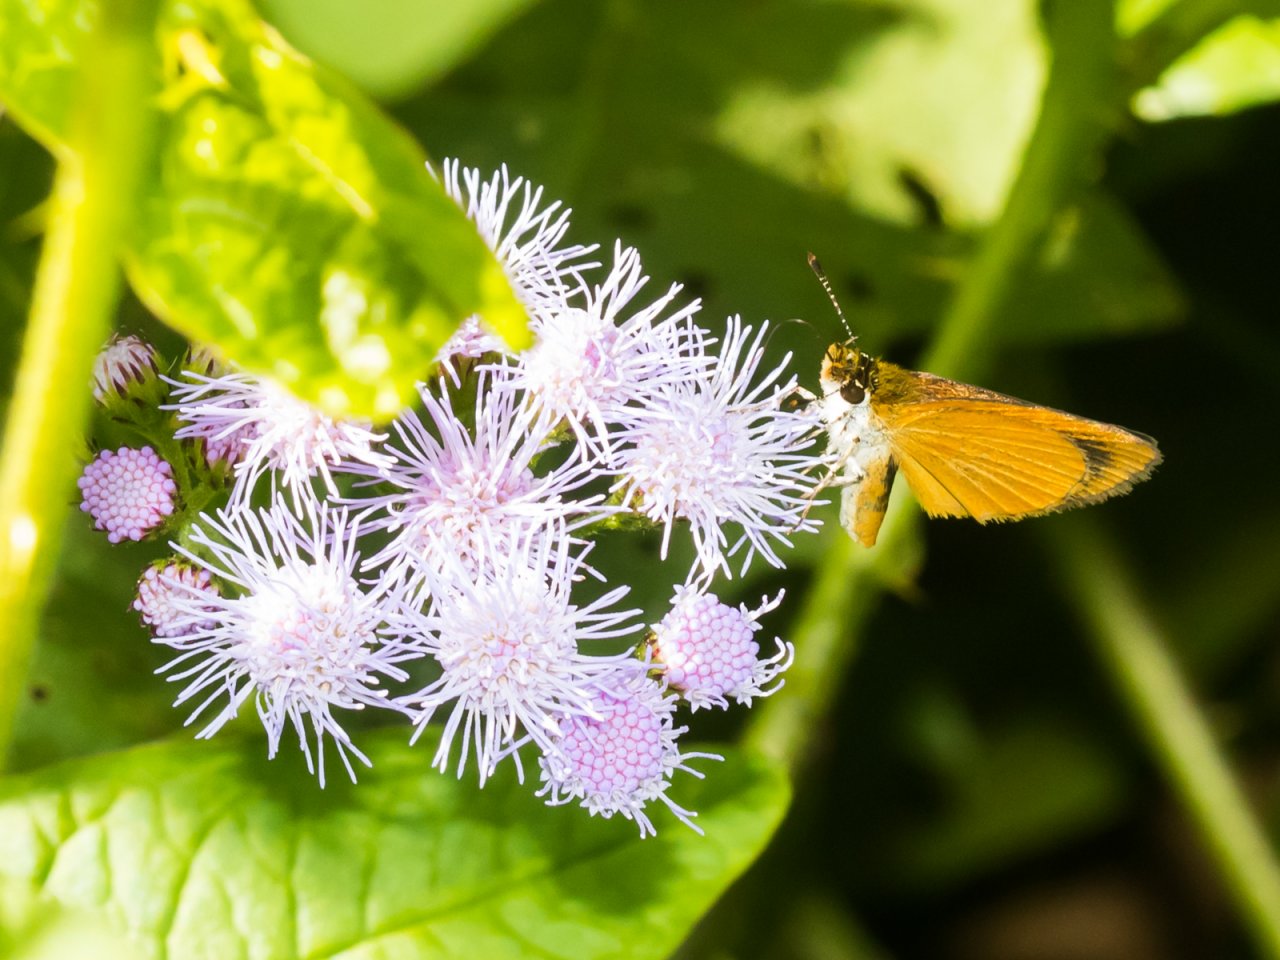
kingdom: Animalia
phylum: Arthropoda
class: Insecta
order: Lepidoptera
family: Hesperiidae
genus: Ancyloxypha
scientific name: Ancyloxypha numitor
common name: Least Skipper
